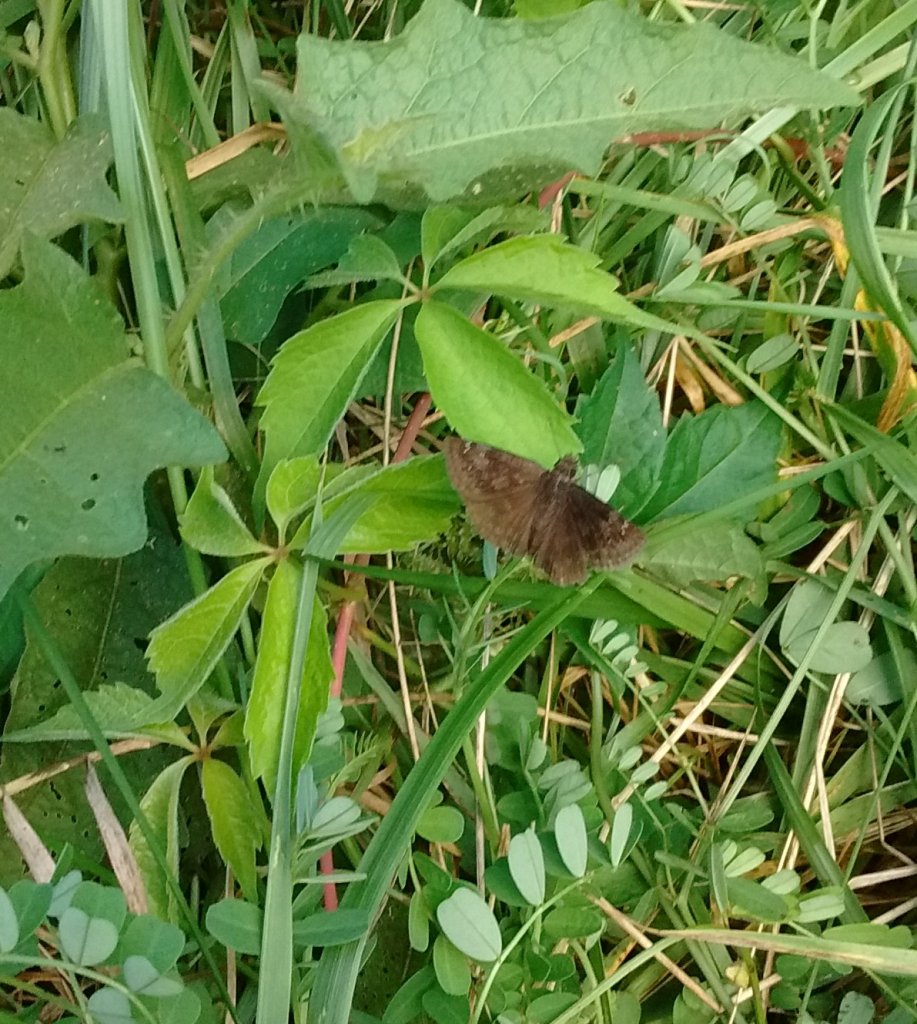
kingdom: Animalia
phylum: Arthropoda
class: Insecta
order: Lepidoptera
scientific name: Lepidoptera
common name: Butterflies
